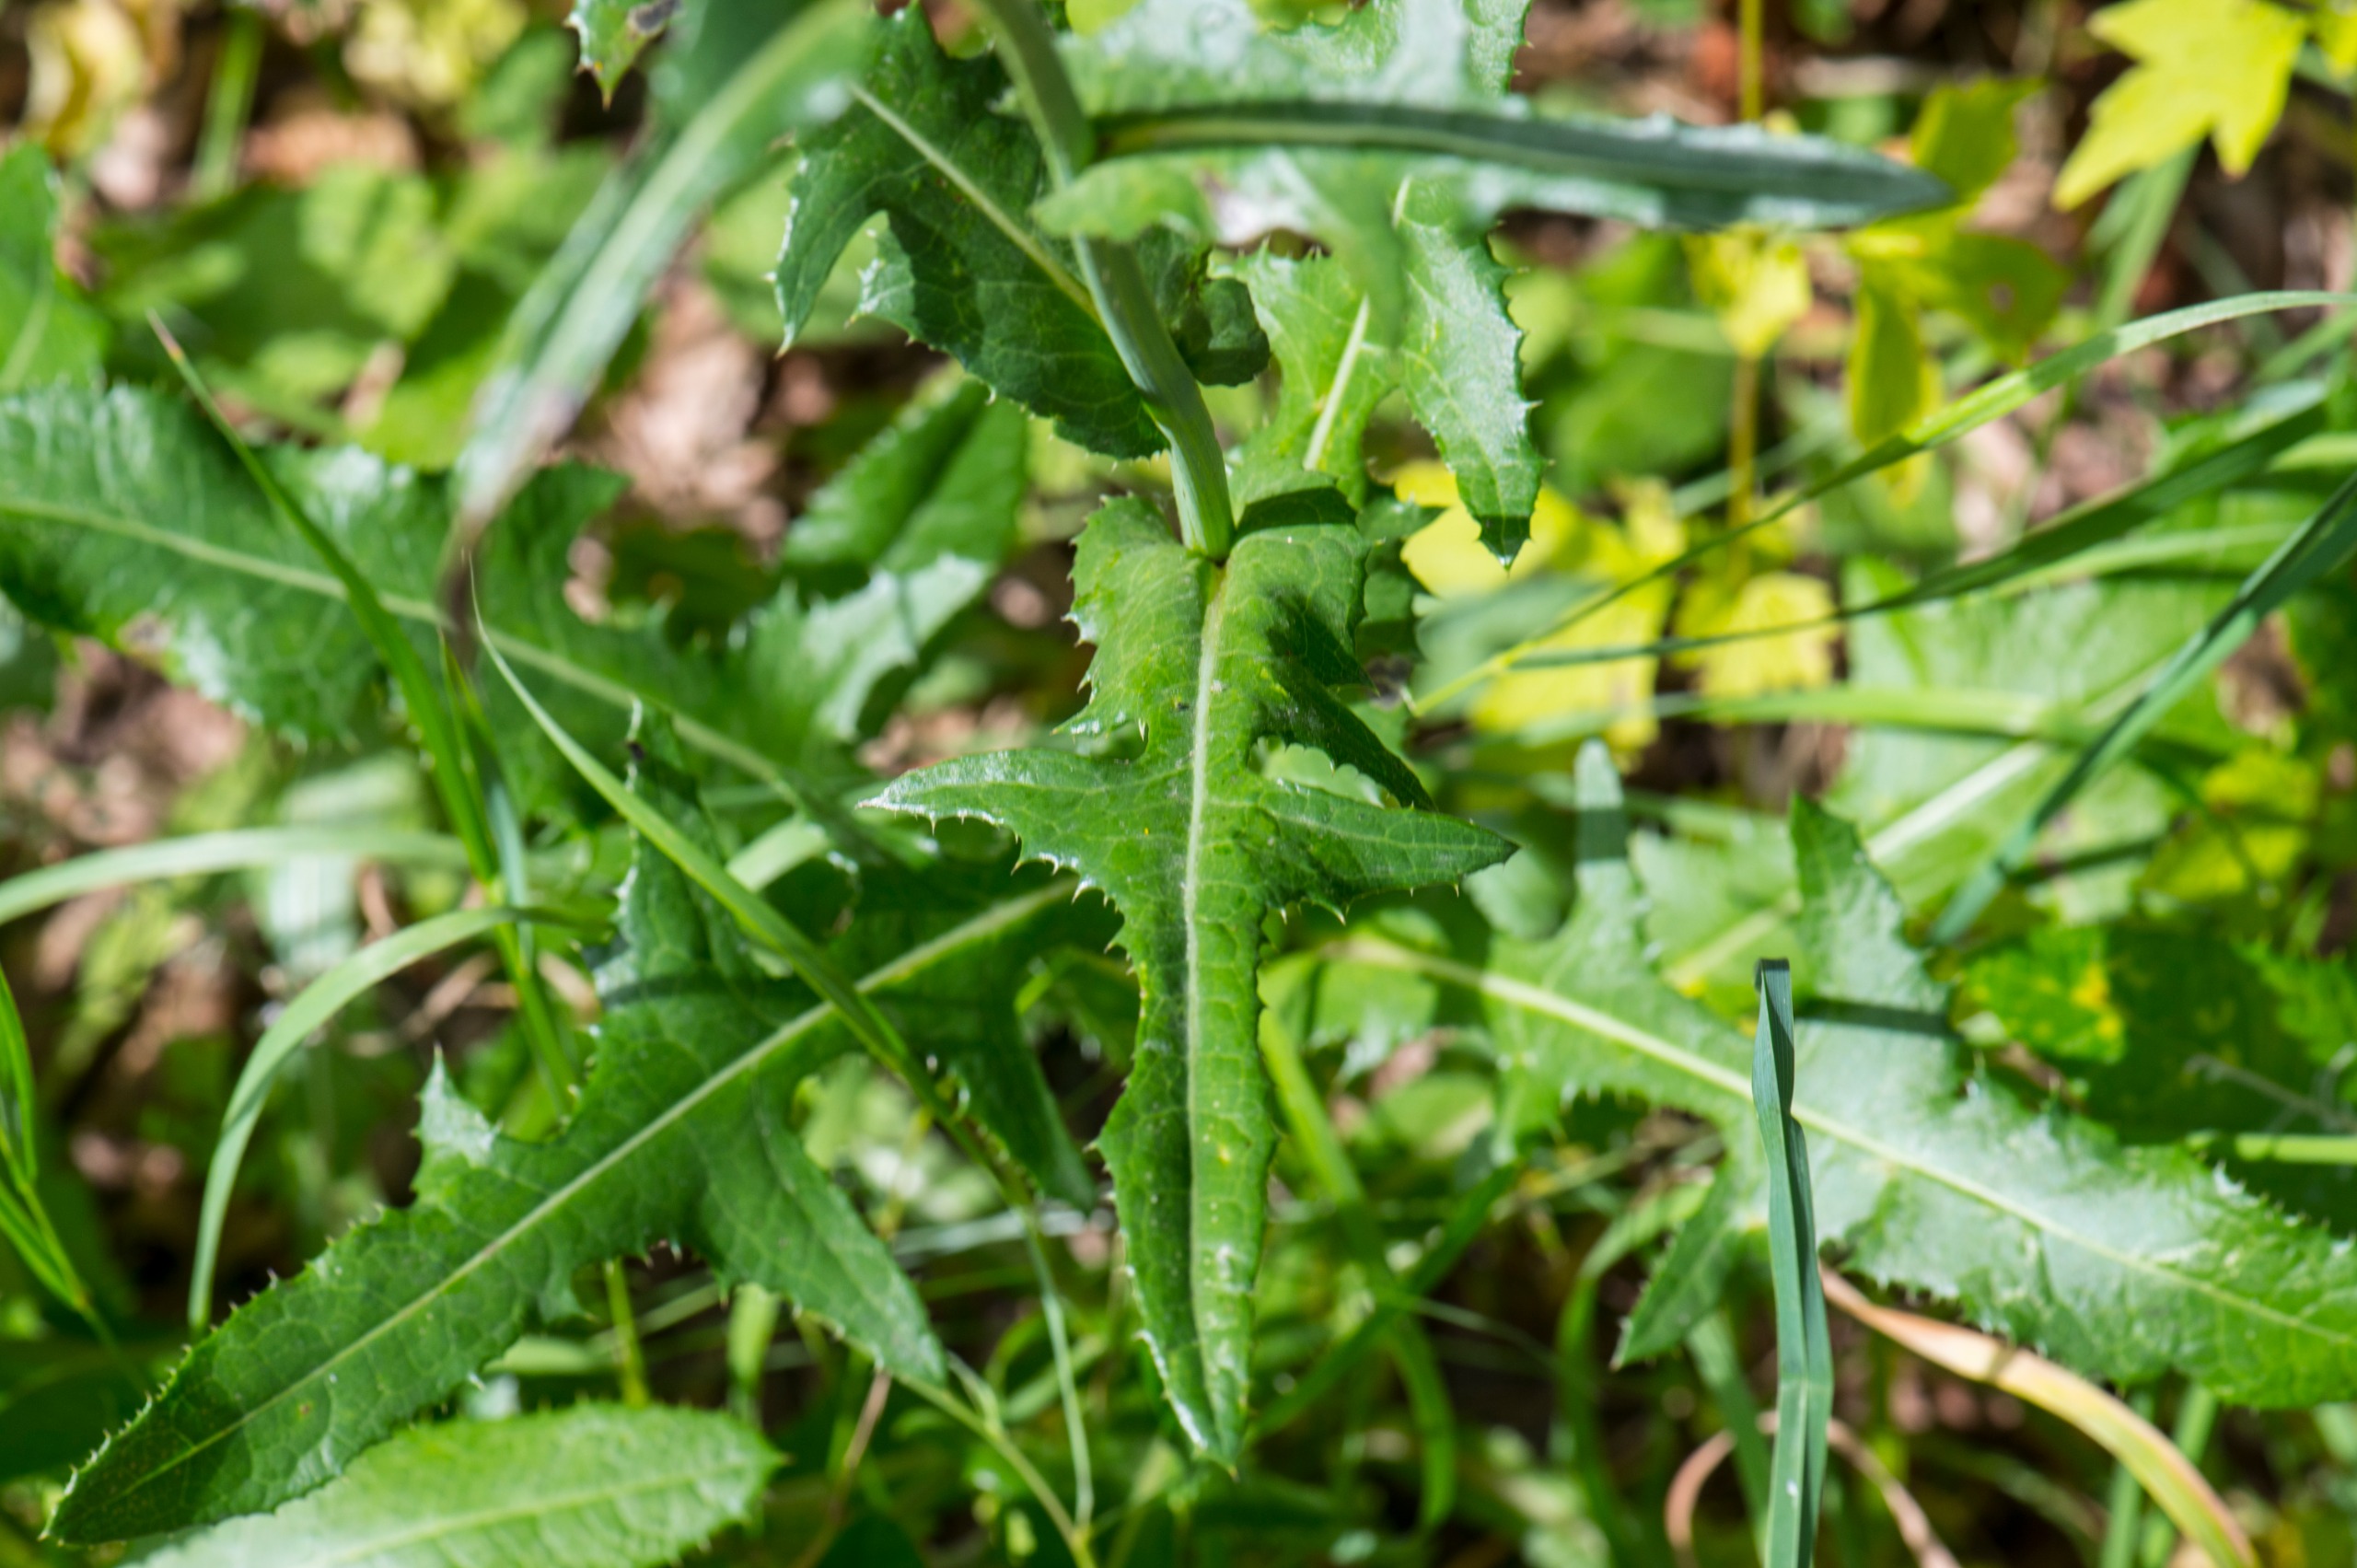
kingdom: Plantae
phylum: Tracheophyta
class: Magnoliopsida
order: Asterales
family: Asteraceae
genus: Sonchus
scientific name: Sonchus arvensis
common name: Ager-svinemælk
